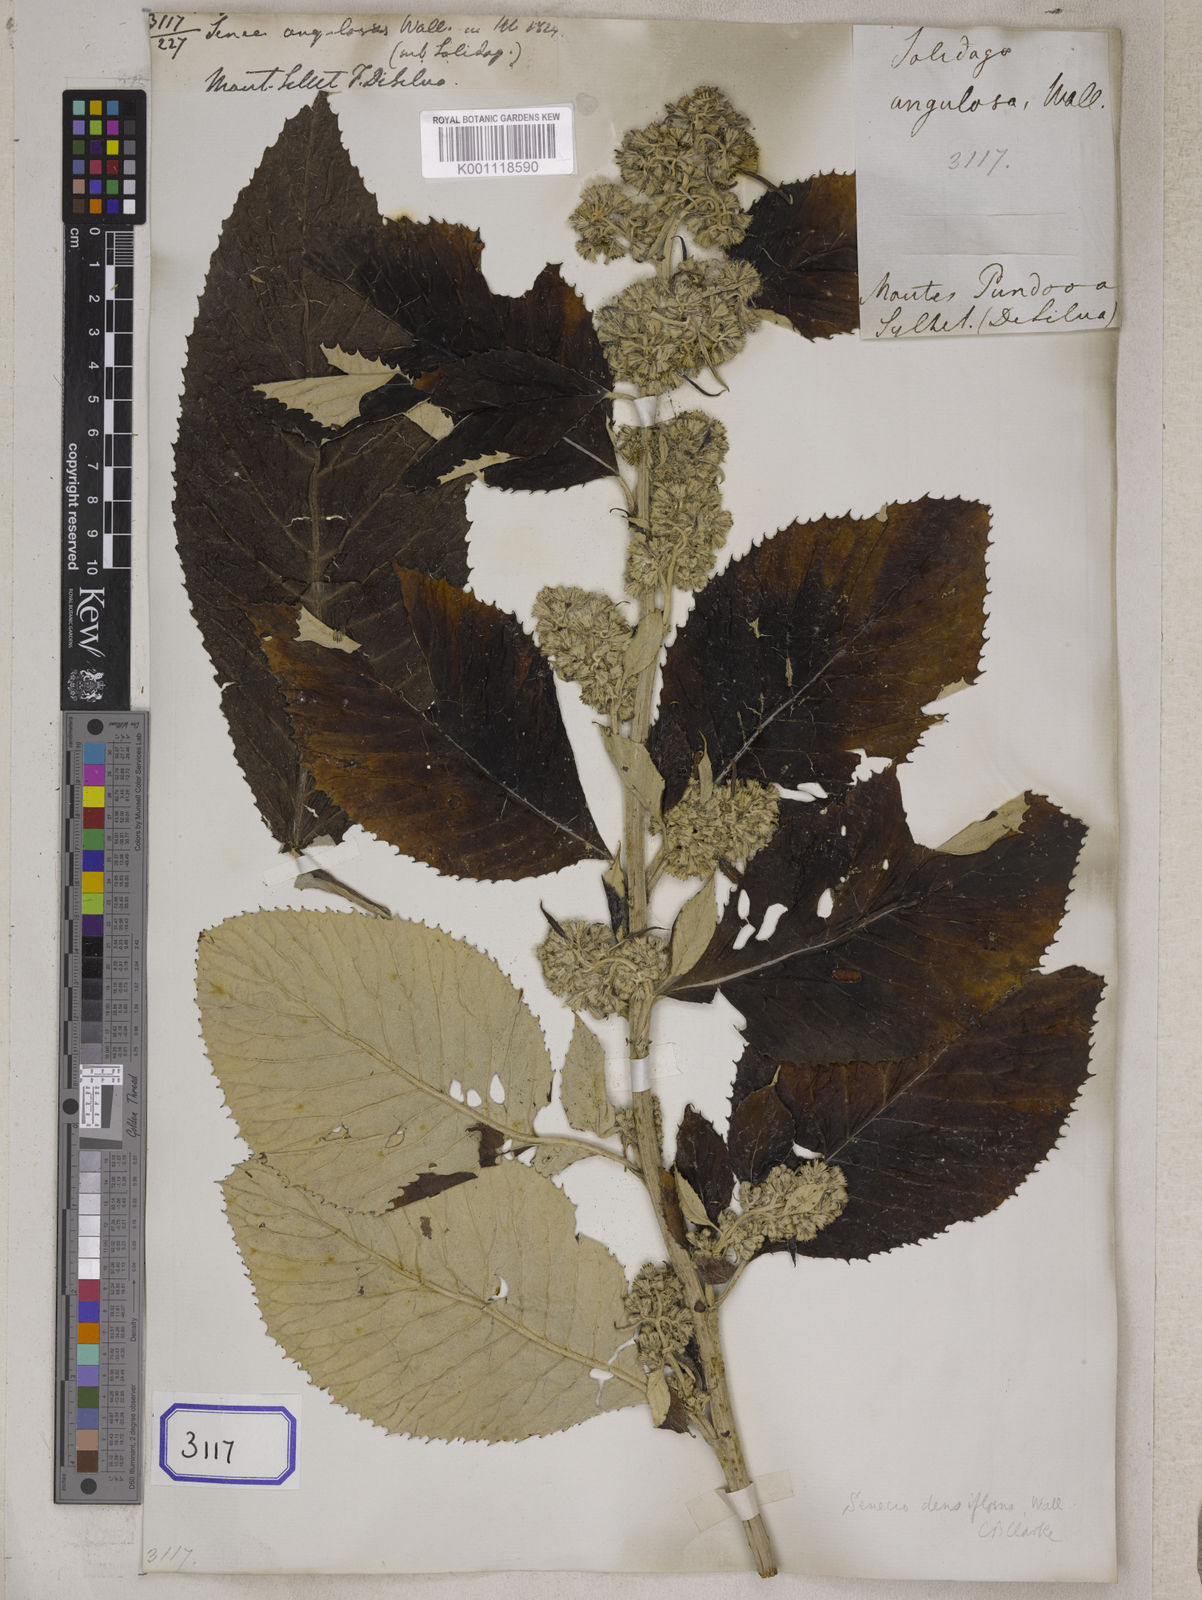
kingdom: Plantae
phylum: Tracheophyta
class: Magnoliopsida
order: Asterales
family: Asteraceae
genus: Synotis
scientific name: Synotis cappa
